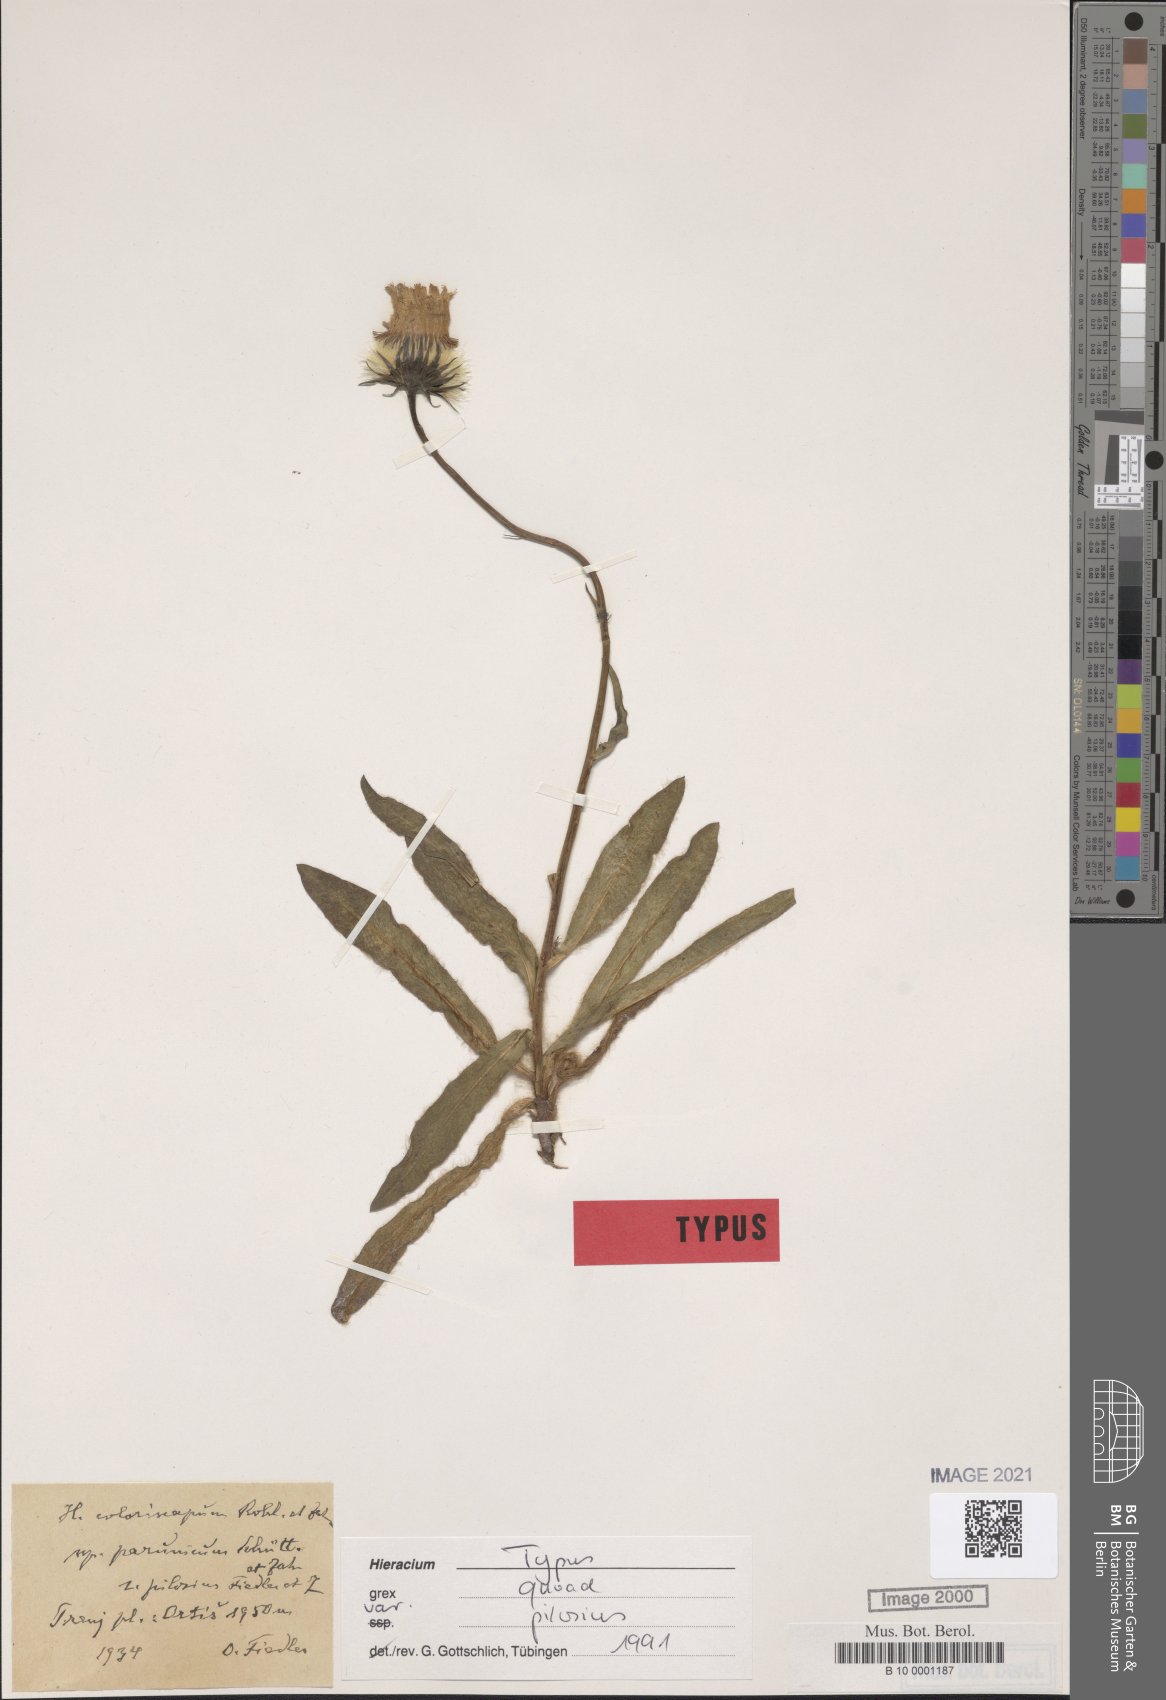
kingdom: Plantae
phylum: Tracheophyta
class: Magnoliopsida
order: Asterales
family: Asteraceae
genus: Hieracium
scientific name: Hieracium coloriscapum
